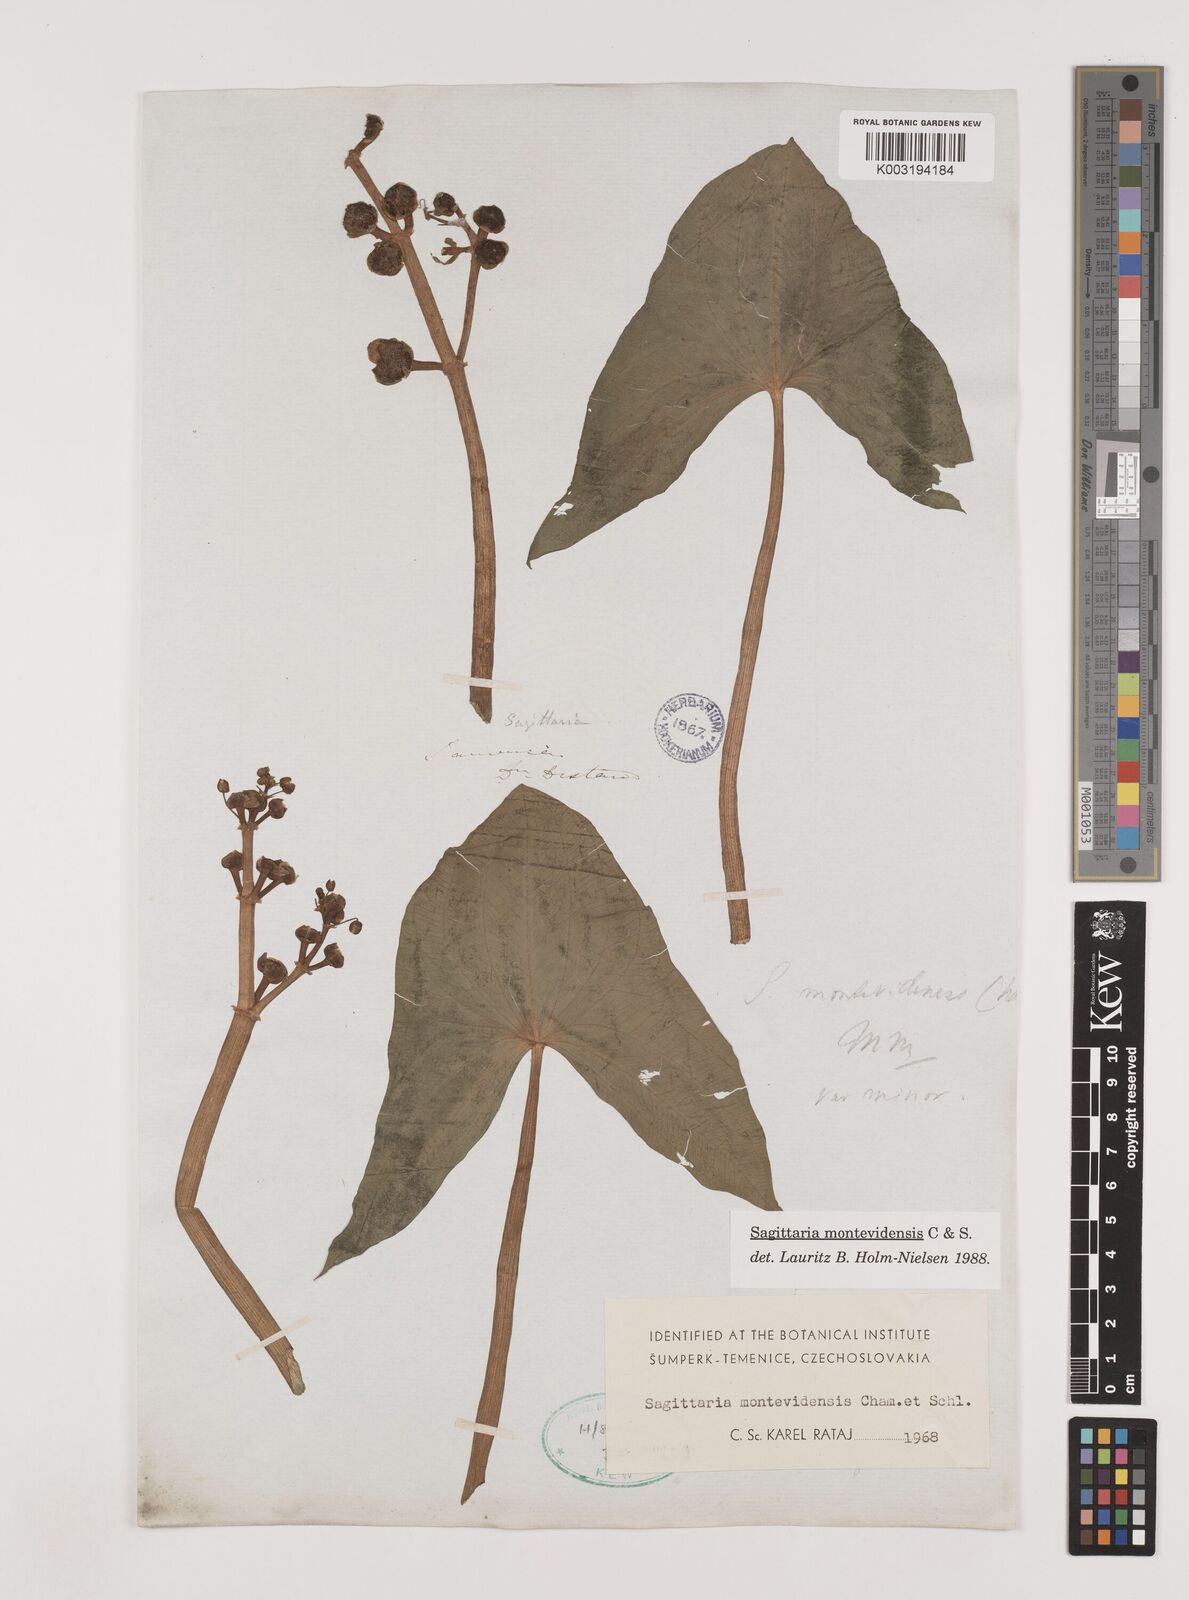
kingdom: Plantae
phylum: Tracheophyta
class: Liliopsida
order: Alismatales
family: Alismataceae
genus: Sagittaria
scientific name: Sagittaria montevidensis
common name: Giant arrowhead
